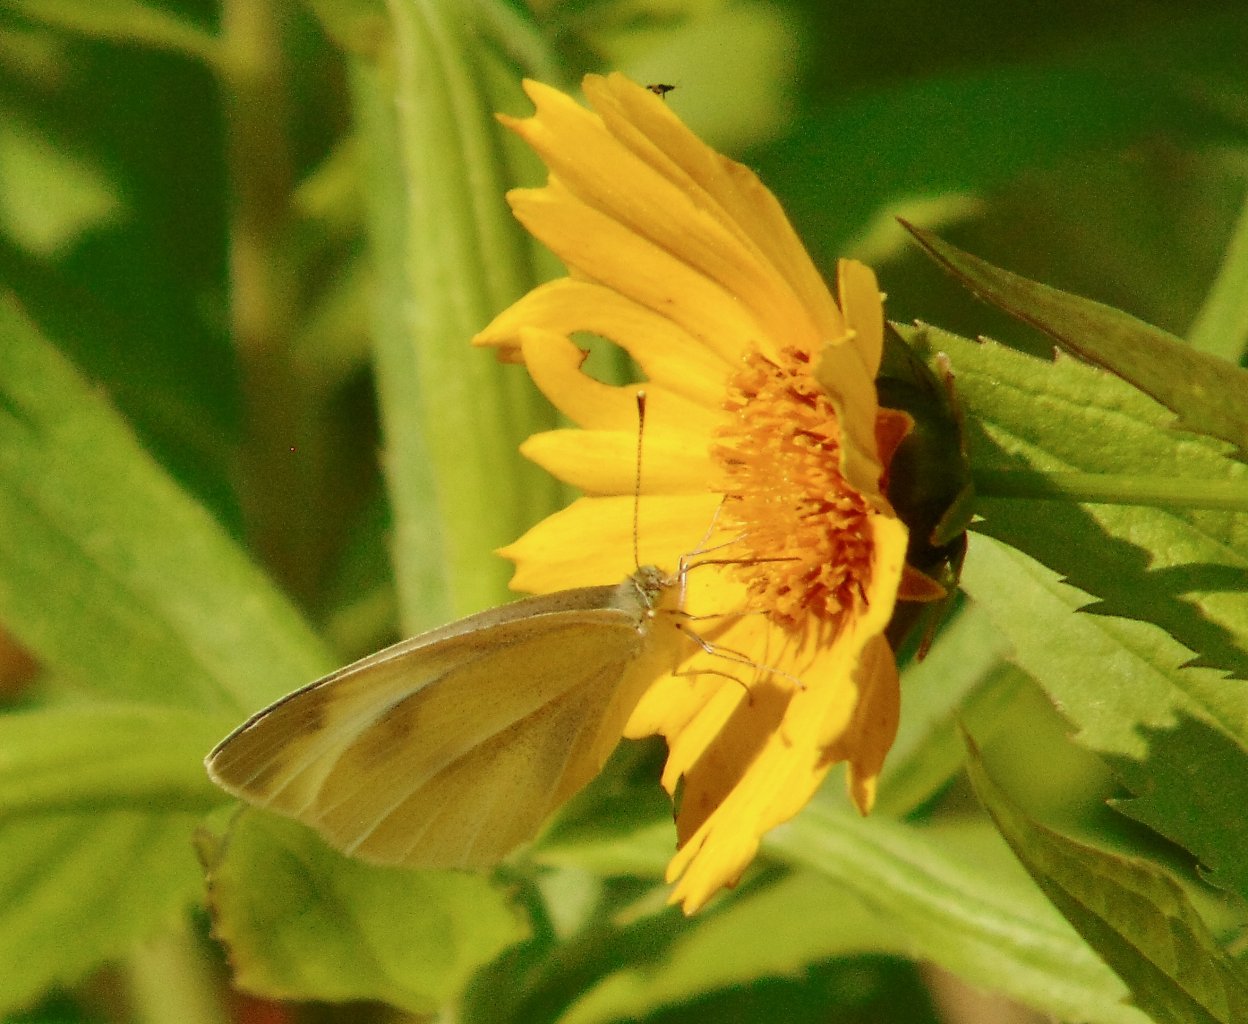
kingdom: Animalia
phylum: Arthropoda
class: Insecta
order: Lepidoptera
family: Pieridae
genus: Pieris
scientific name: Pieris rapae
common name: Cabbage White
